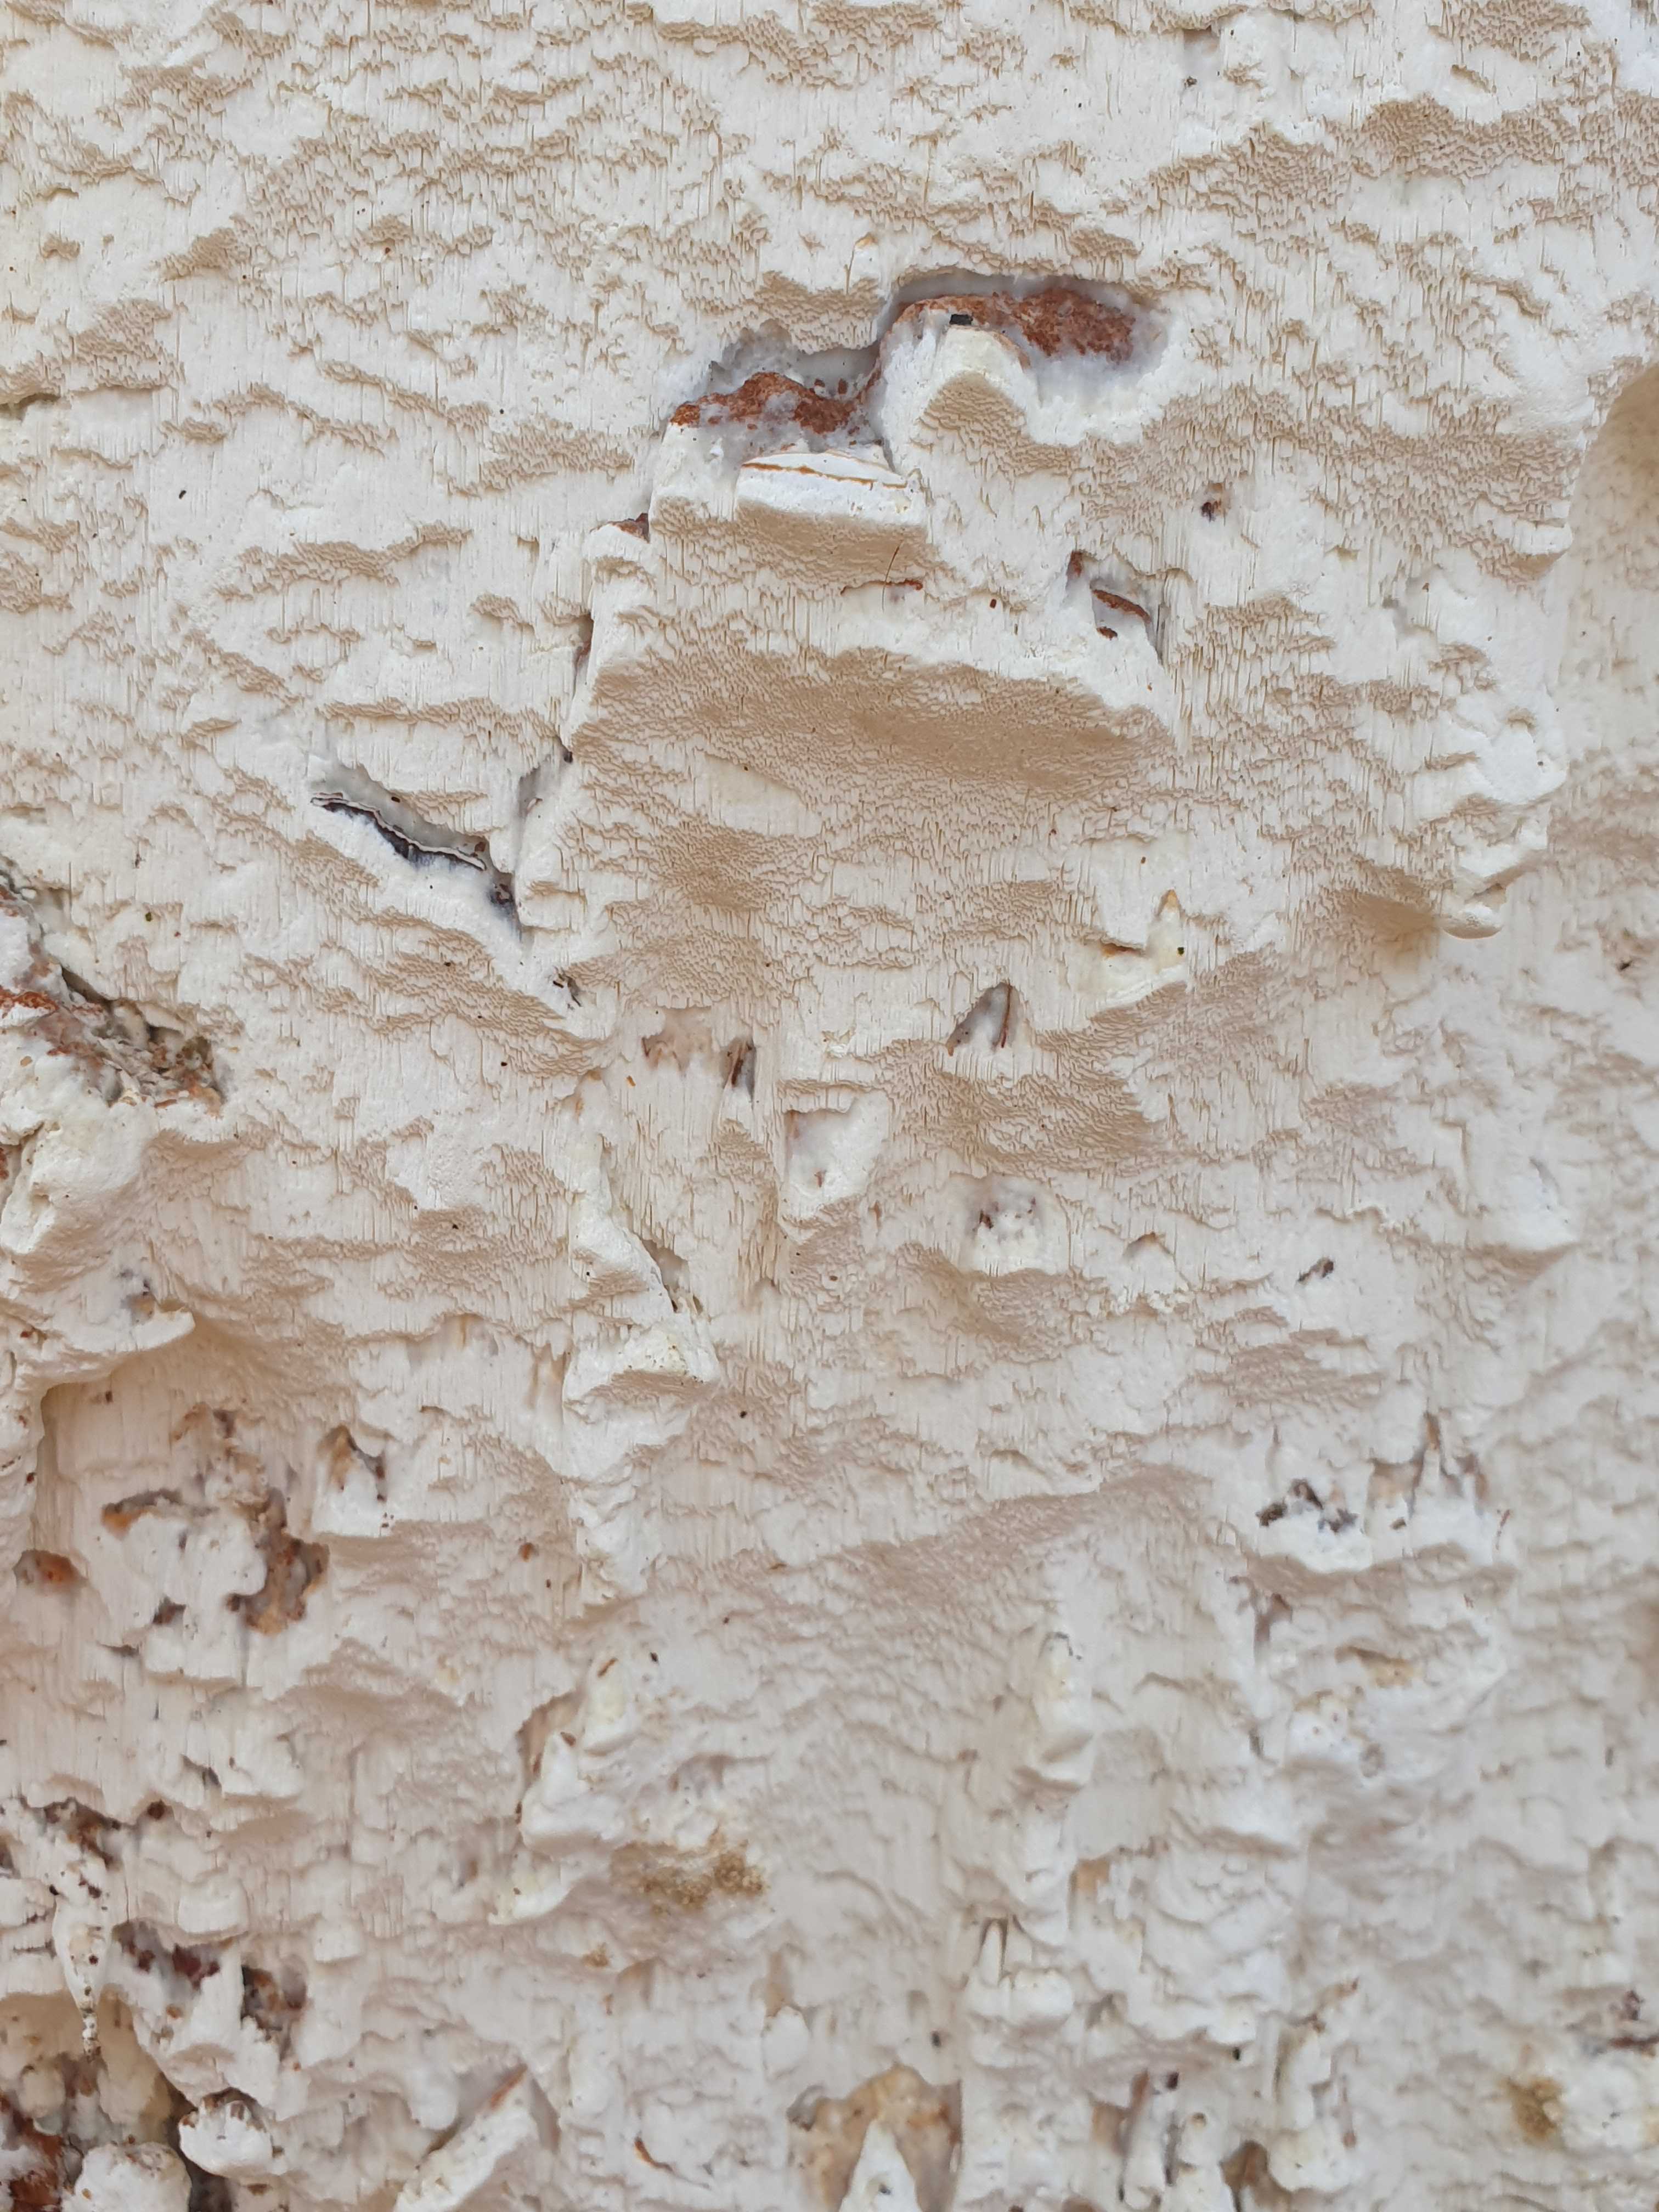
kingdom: Fungi
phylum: Basidiomycota
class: Agaricomycetes
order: Polyporales
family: Fomitopsidaceae
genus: Daedalea
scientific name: Daedalea xantha
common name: gul sejporesvamp
